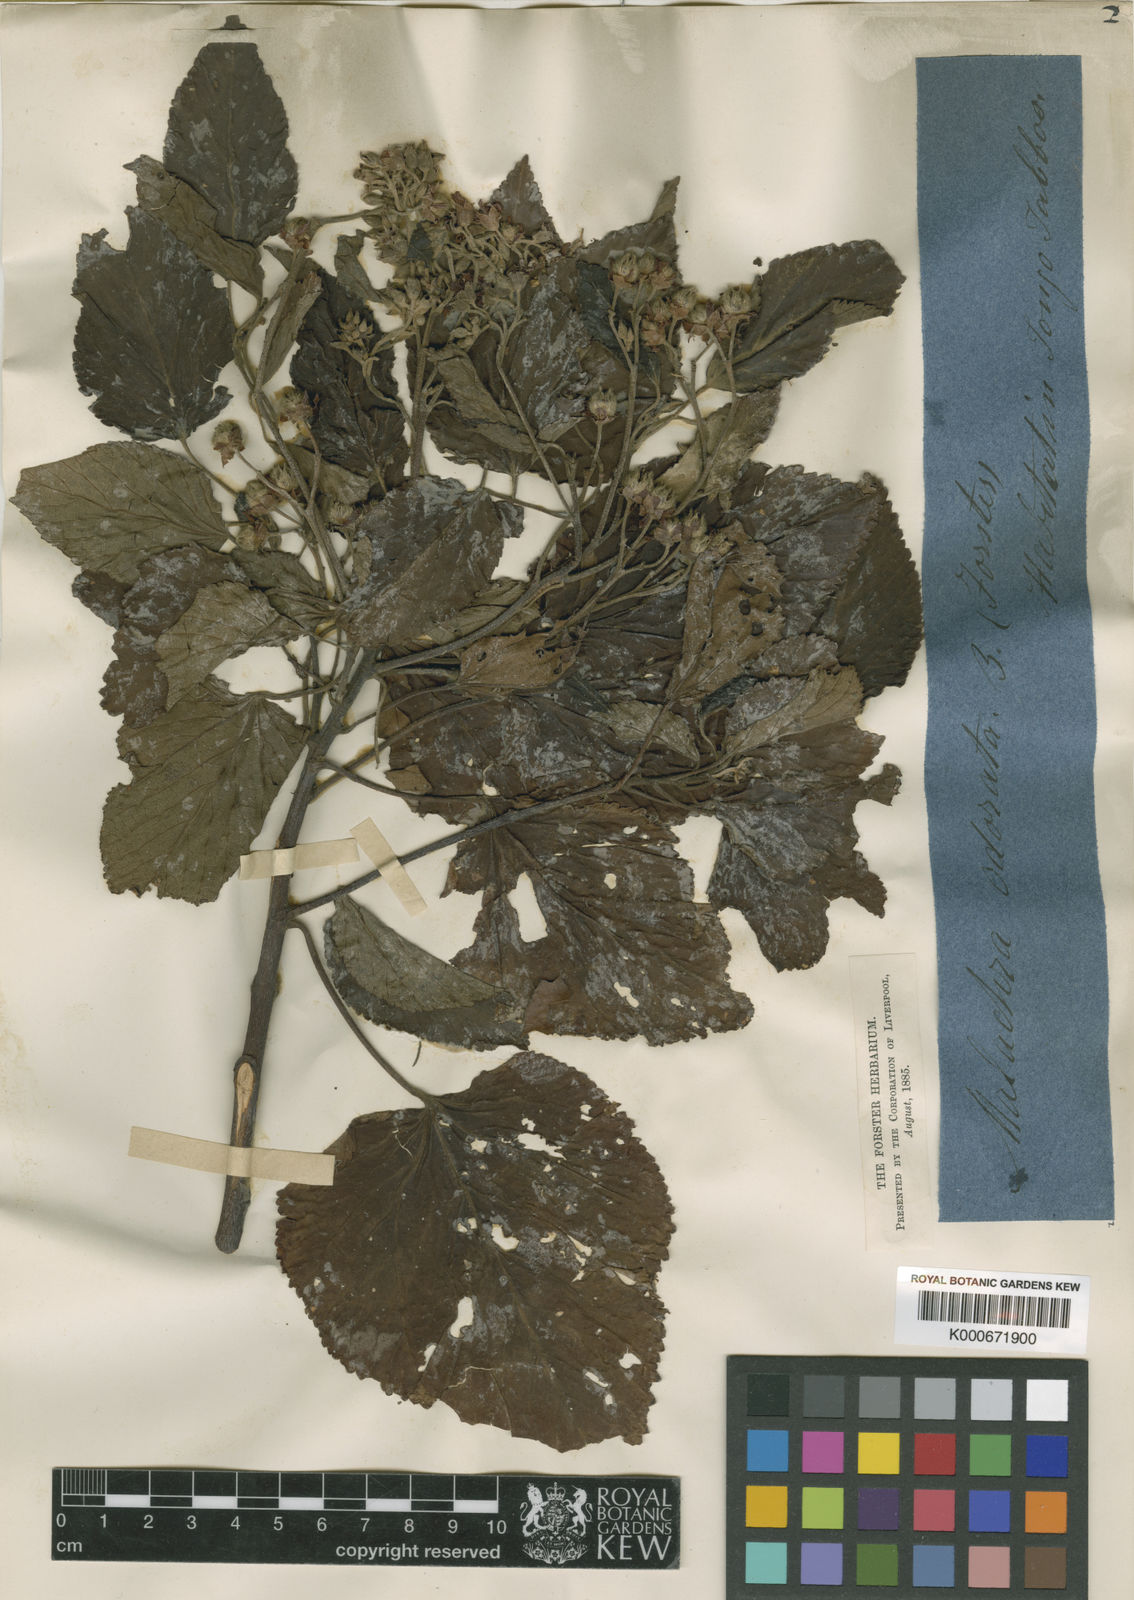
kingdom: Plantae
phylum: Tracheophyta
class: Magnoliopsida
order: Malvales
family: Malvaceae
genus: Melochia
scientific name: Melochia odorata
